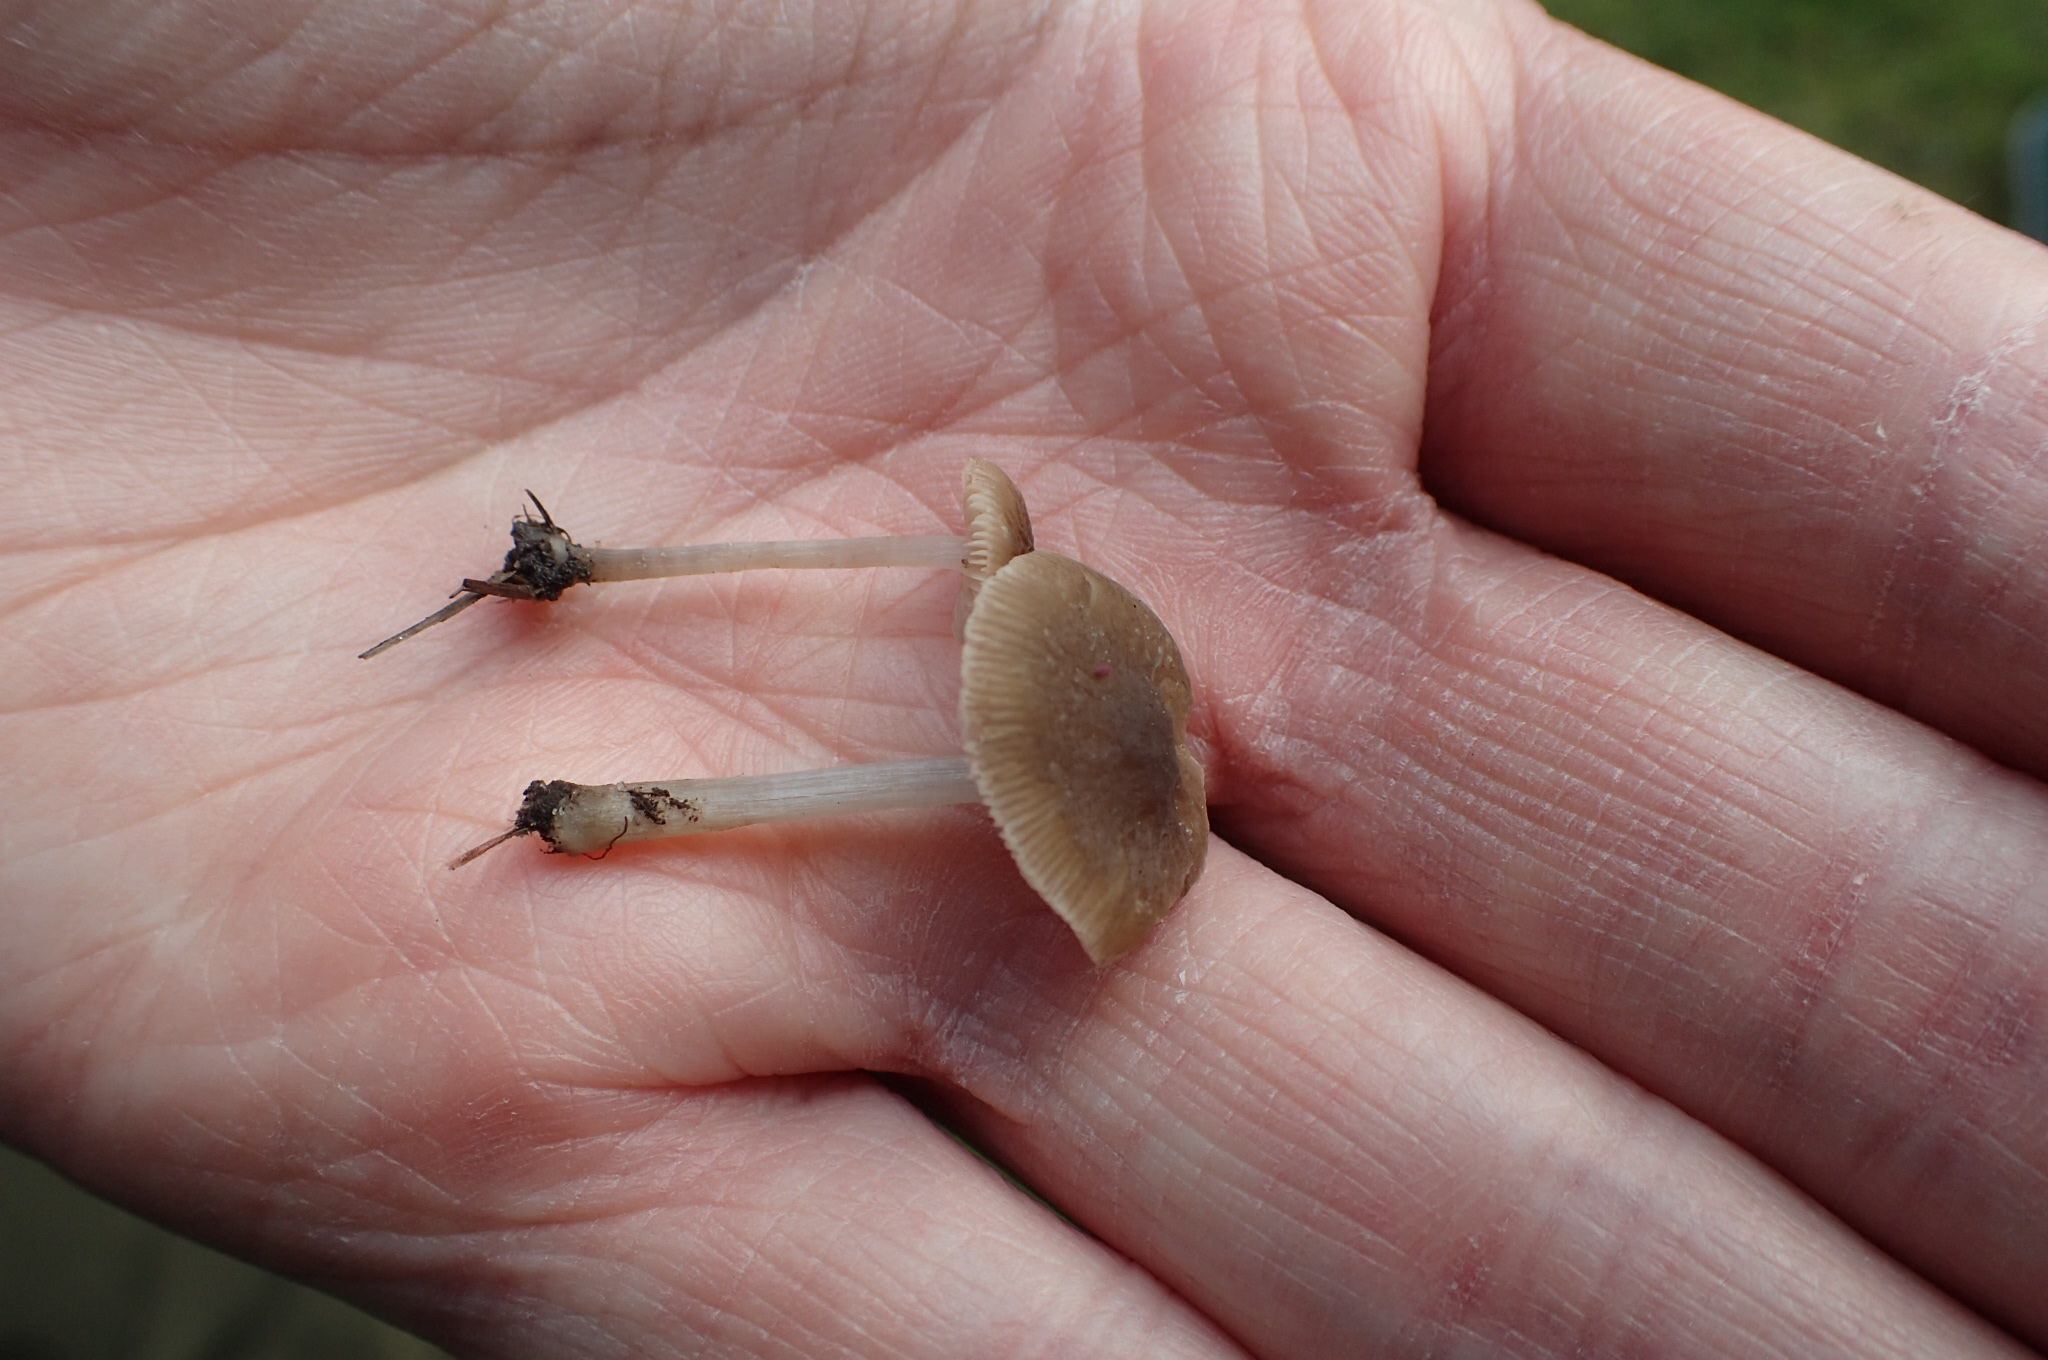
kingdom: Fungi
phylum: Basidiomycota
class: Agaricomycetes
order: Agaricales
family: Pluteaceae
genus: Pluteus
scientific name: Pluteus
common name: pudret skærmhat
